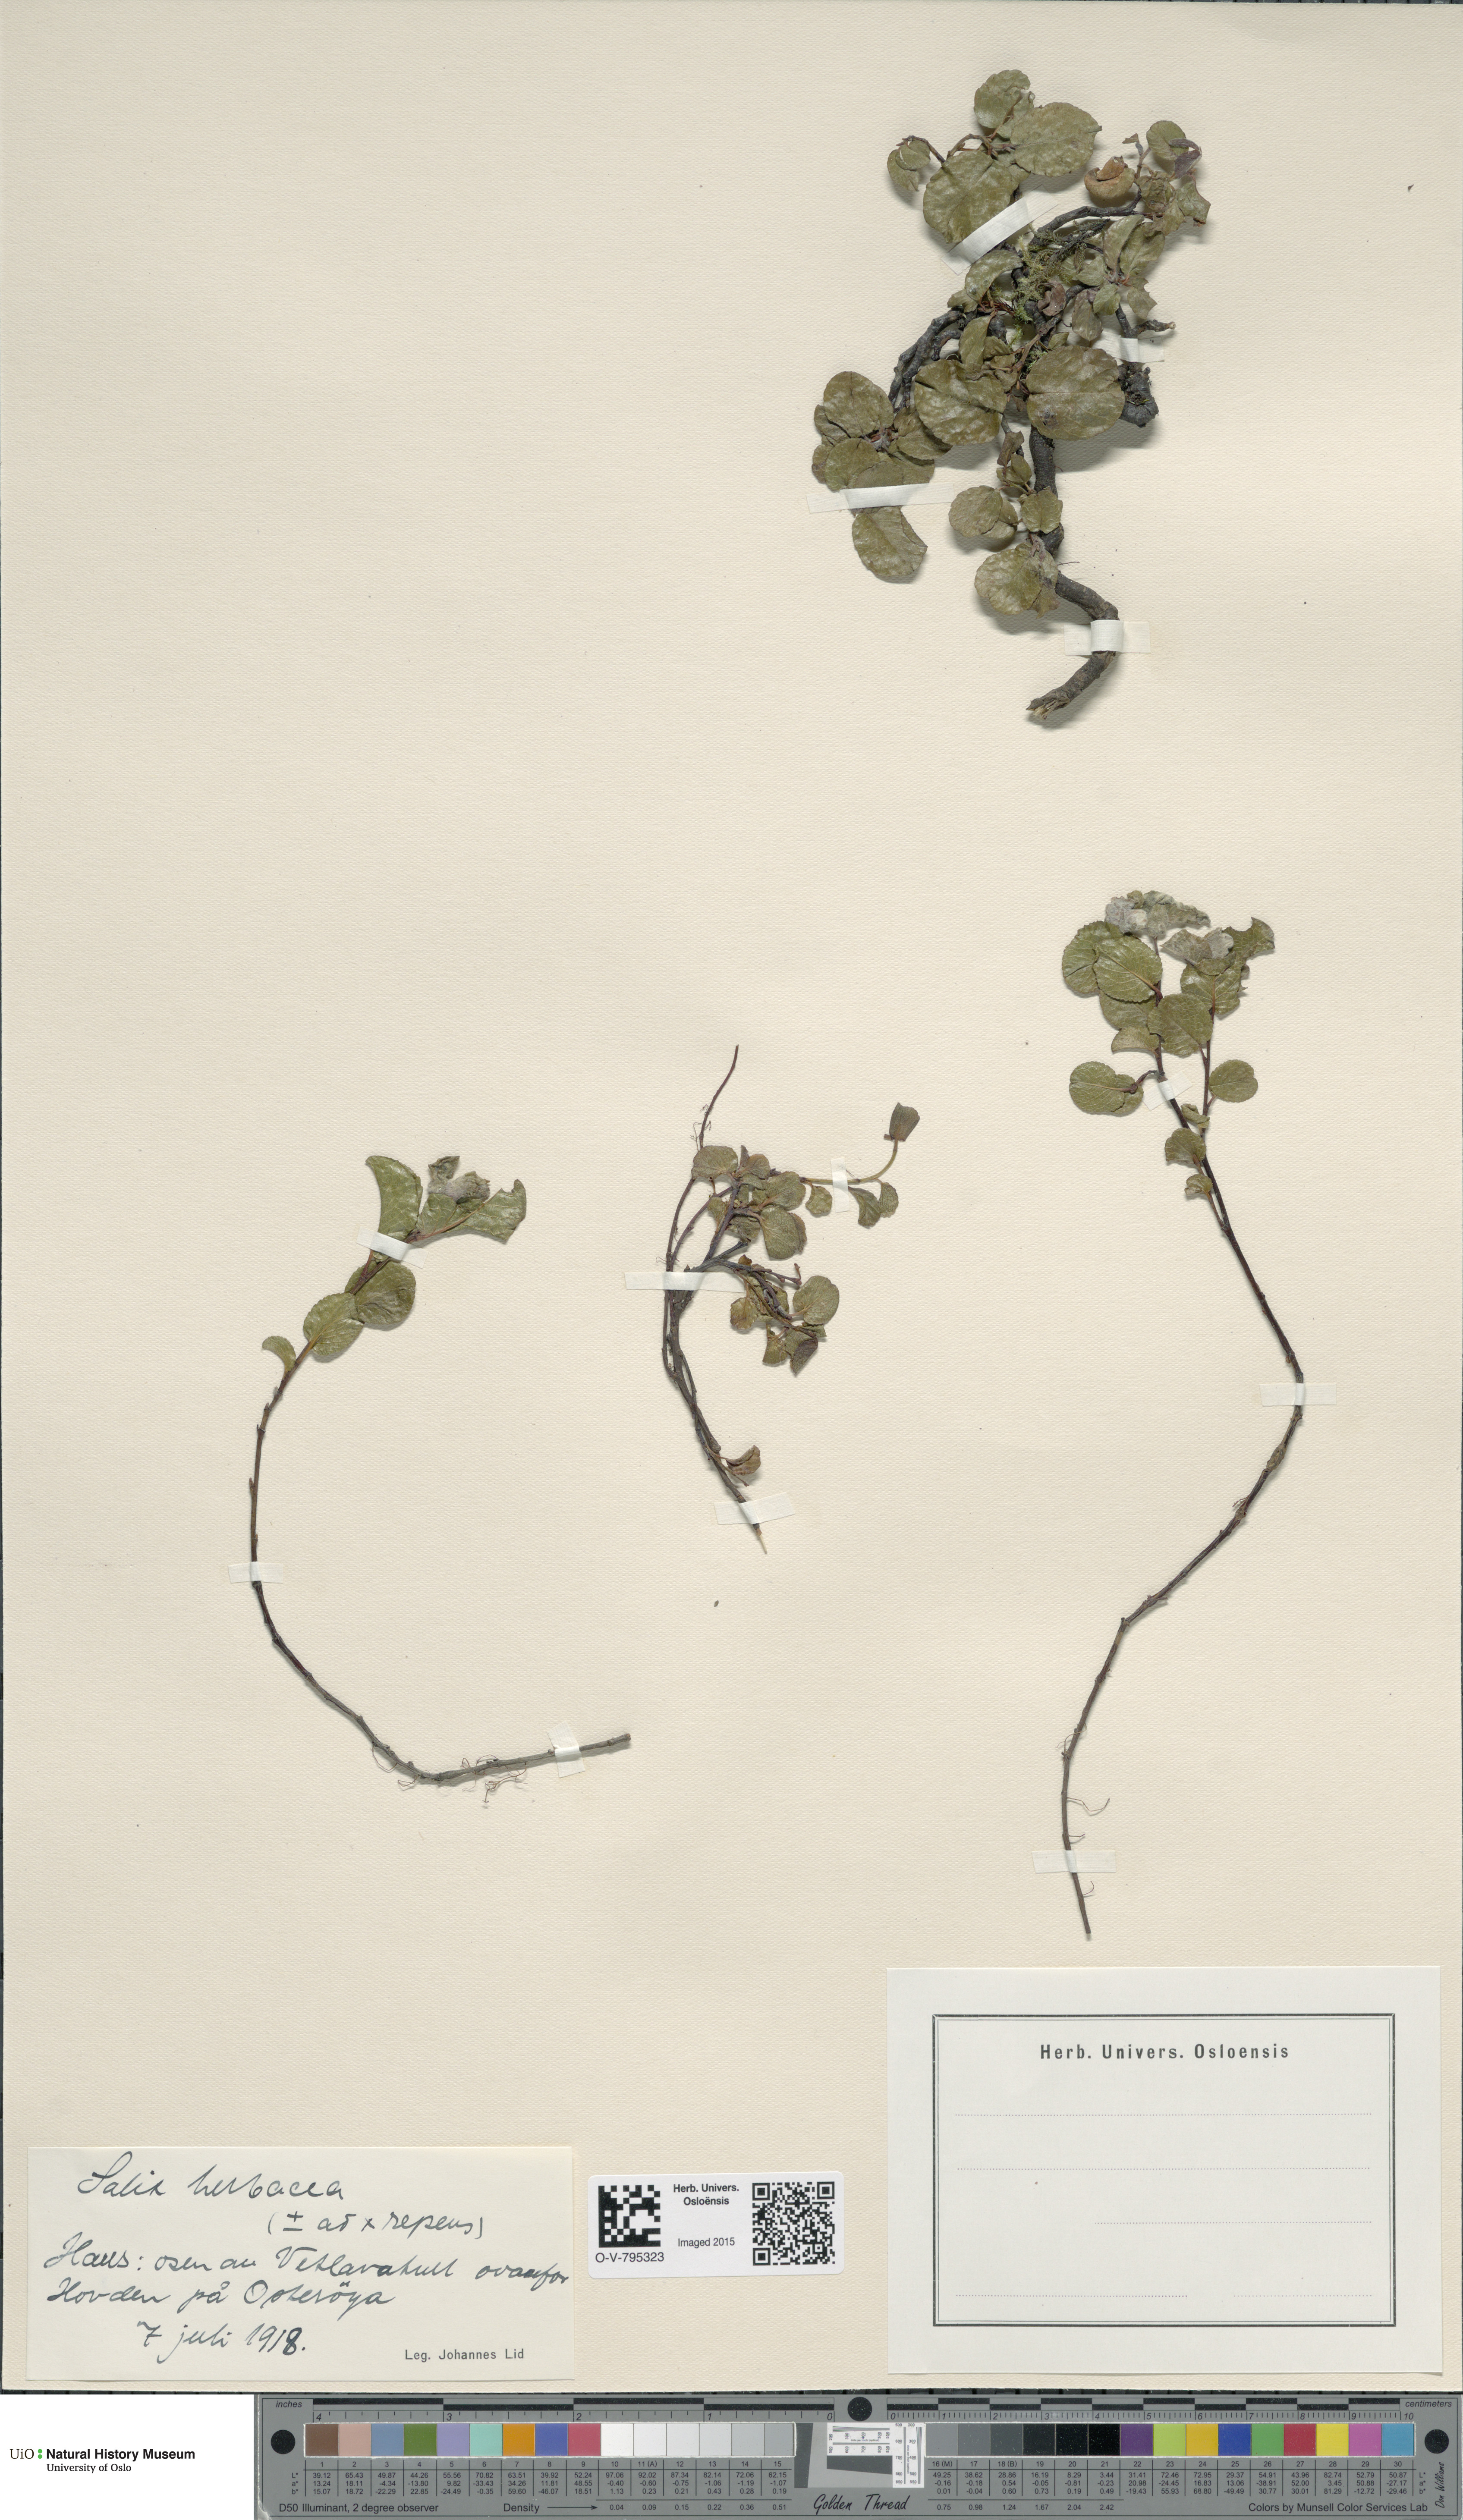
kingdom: Plantae
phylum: Tracheophyta
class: Magnoliopsida
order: Malpighiales
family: Salicaceae
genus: Salix
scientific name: Salix
